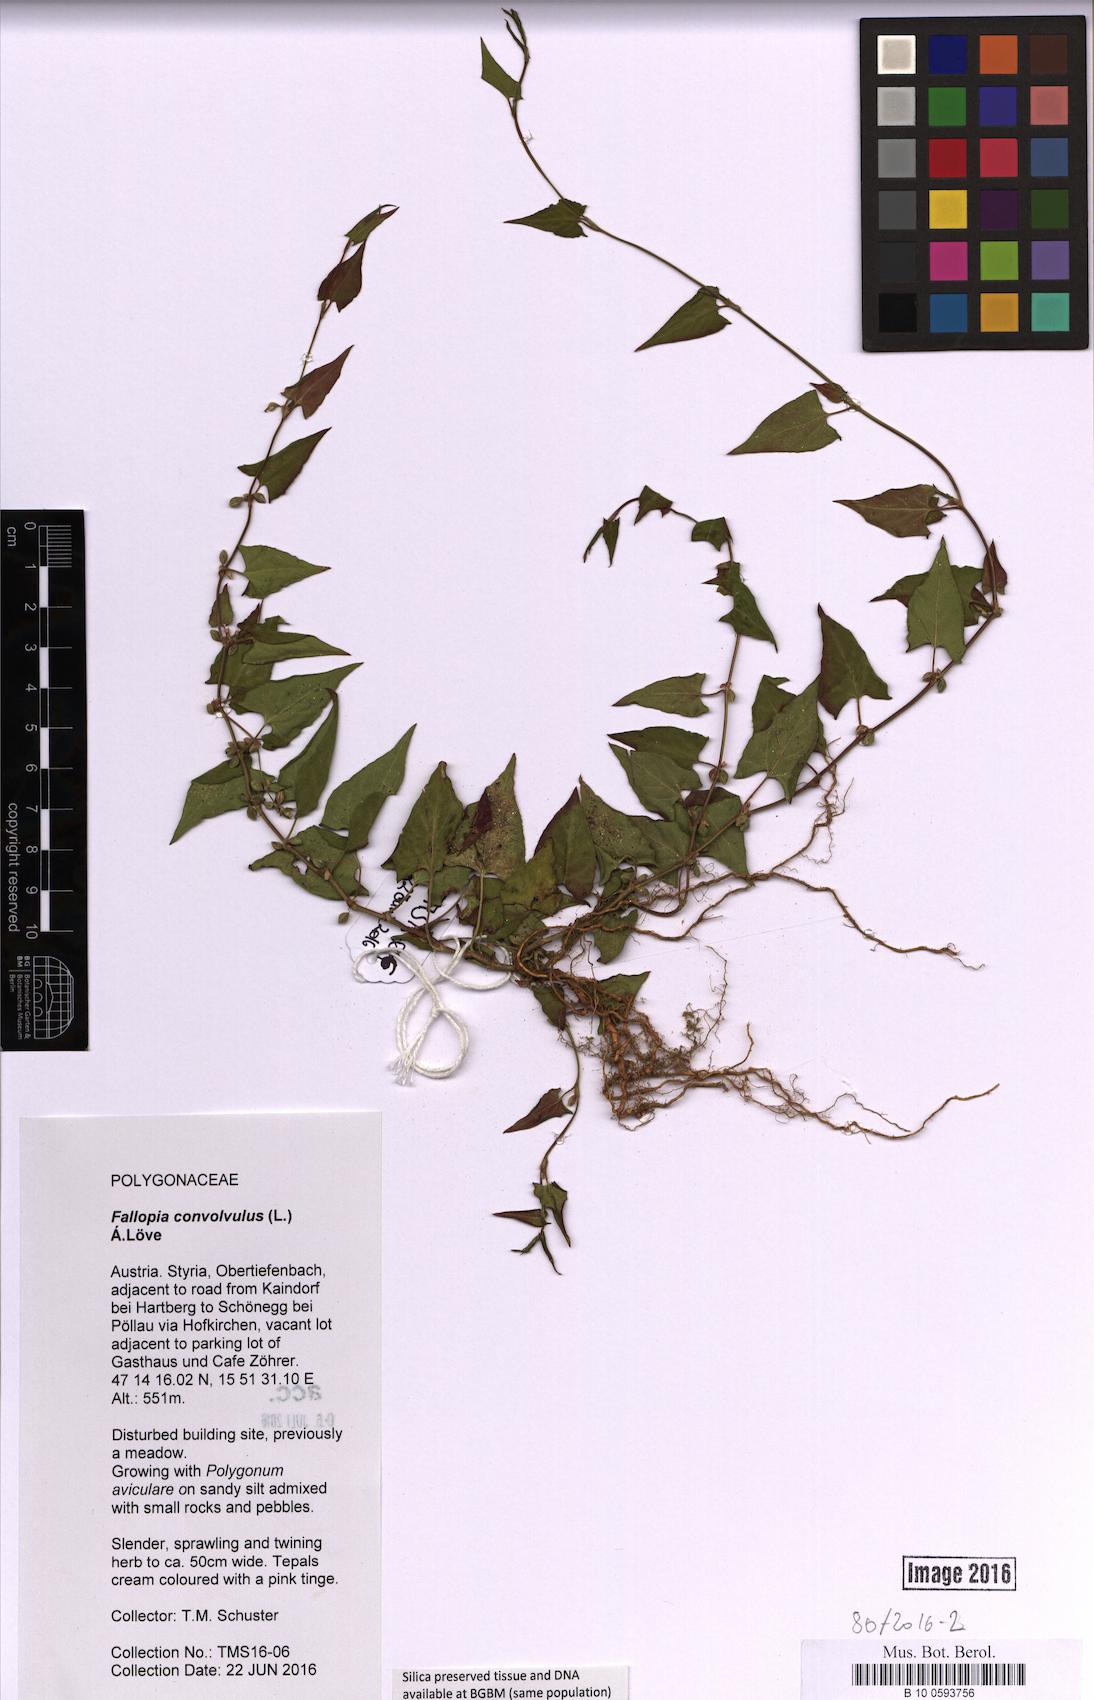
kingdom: Plantae
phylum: Tracheophyta
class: Magnoliopsida
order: Caryophyllales
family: Polygonaceae
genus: Fallopia
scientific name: Fallopia convolvulus
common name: Black bindweed
